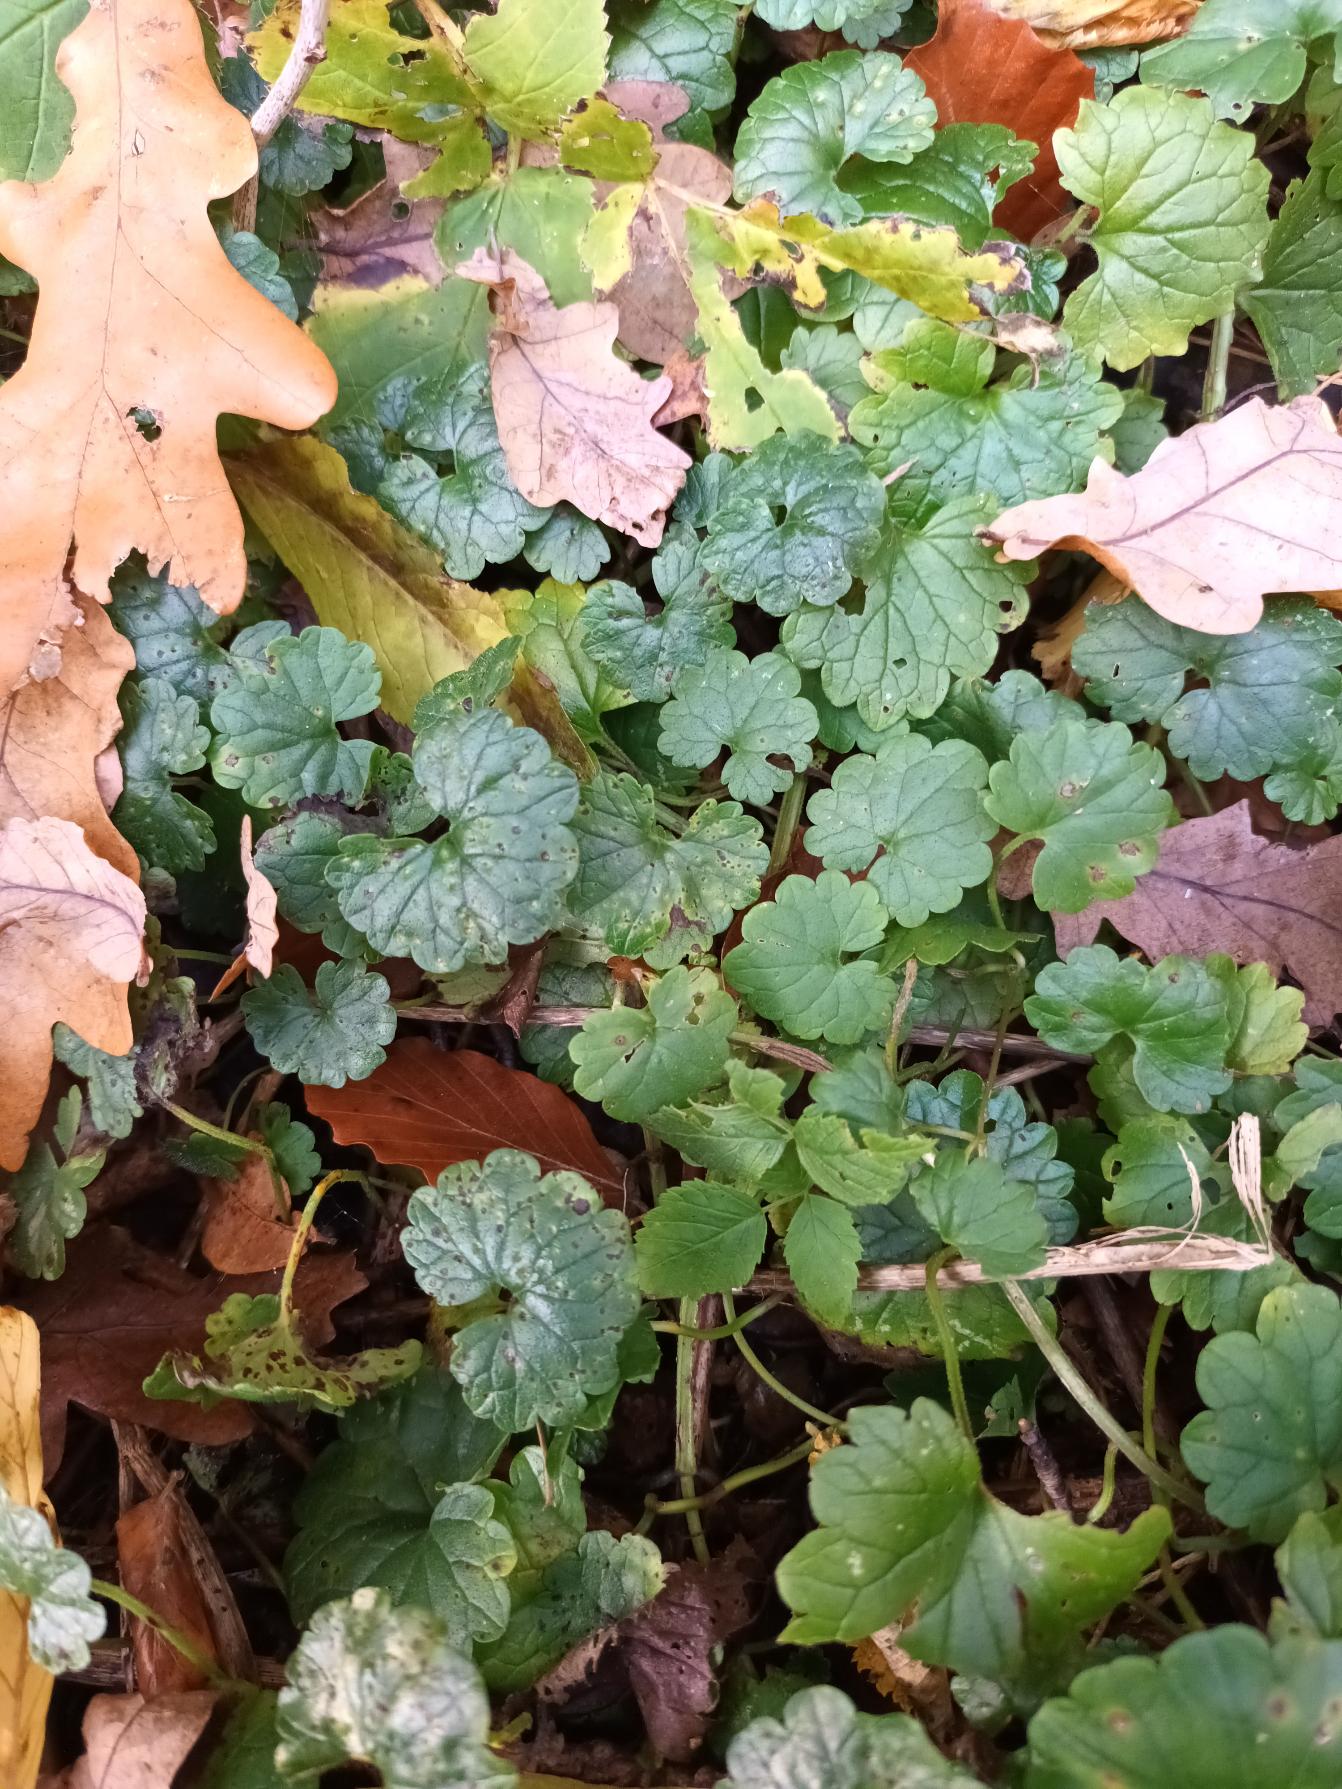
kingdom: Plantae
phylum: Tracheophyta
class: Magnoliopsida
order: Lamiales
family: Lamiaceae
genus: Glechoma
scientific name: Glechoma hederacea
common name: Korsknap
